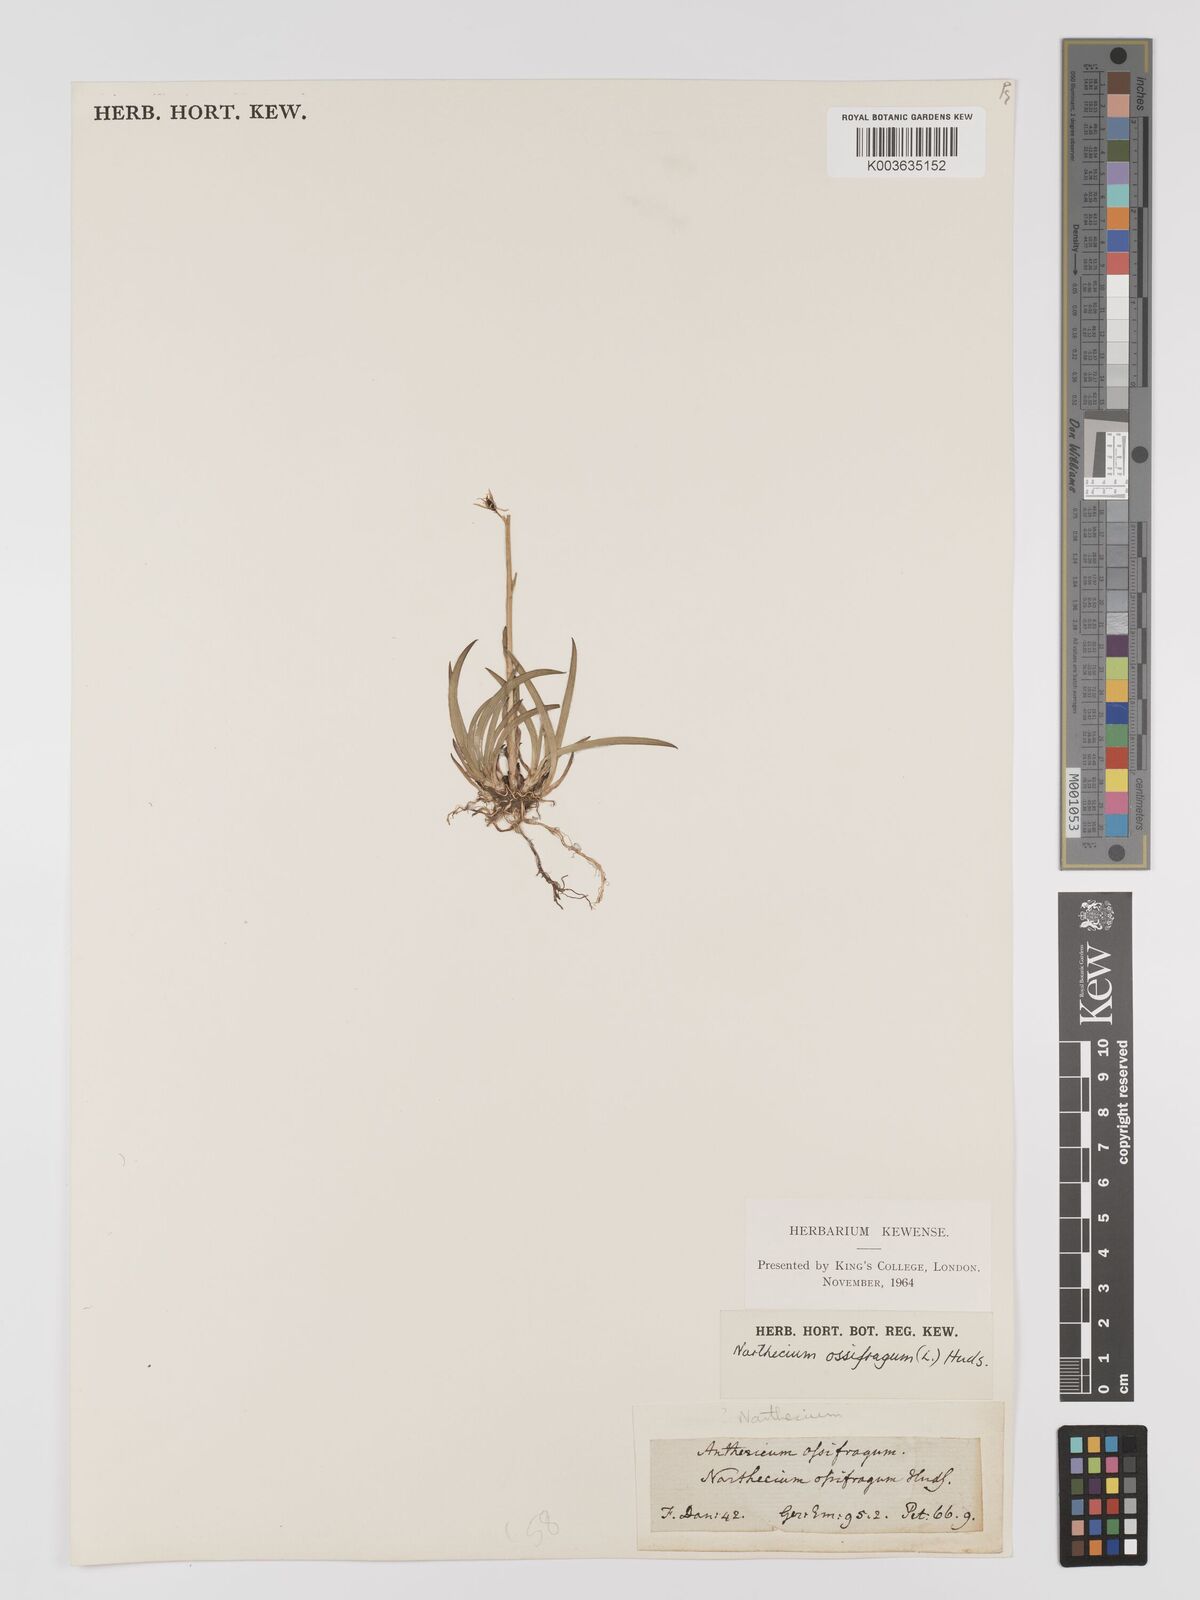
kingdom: Plantae
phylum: Tracheophyta
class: Liliopsida
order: Dioscoreales
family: Nartheciaceae
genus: Narthecium
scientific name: Narthecium ossifragum
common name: Bog asphodel
